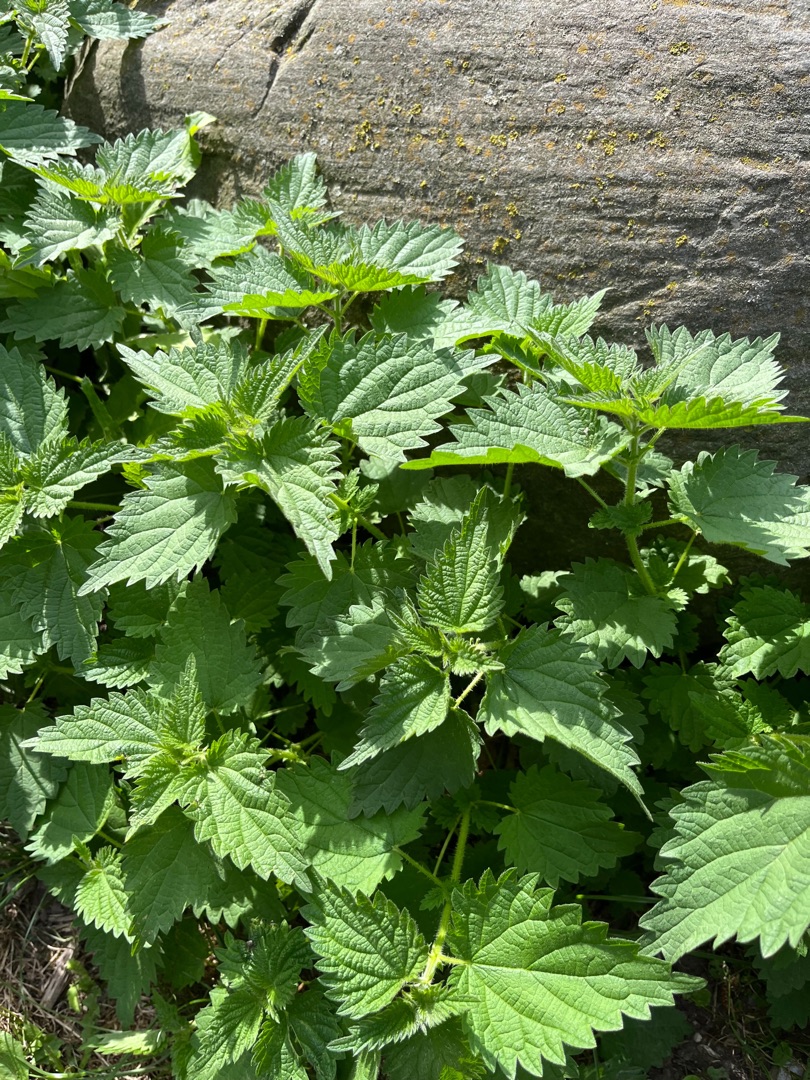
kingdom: Plantae
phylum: Tracheophyta
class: Magnoliopsida
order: Rosales
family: Urticaceae
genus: Urtica
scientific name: Urtica dioica
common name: Stor nælde
